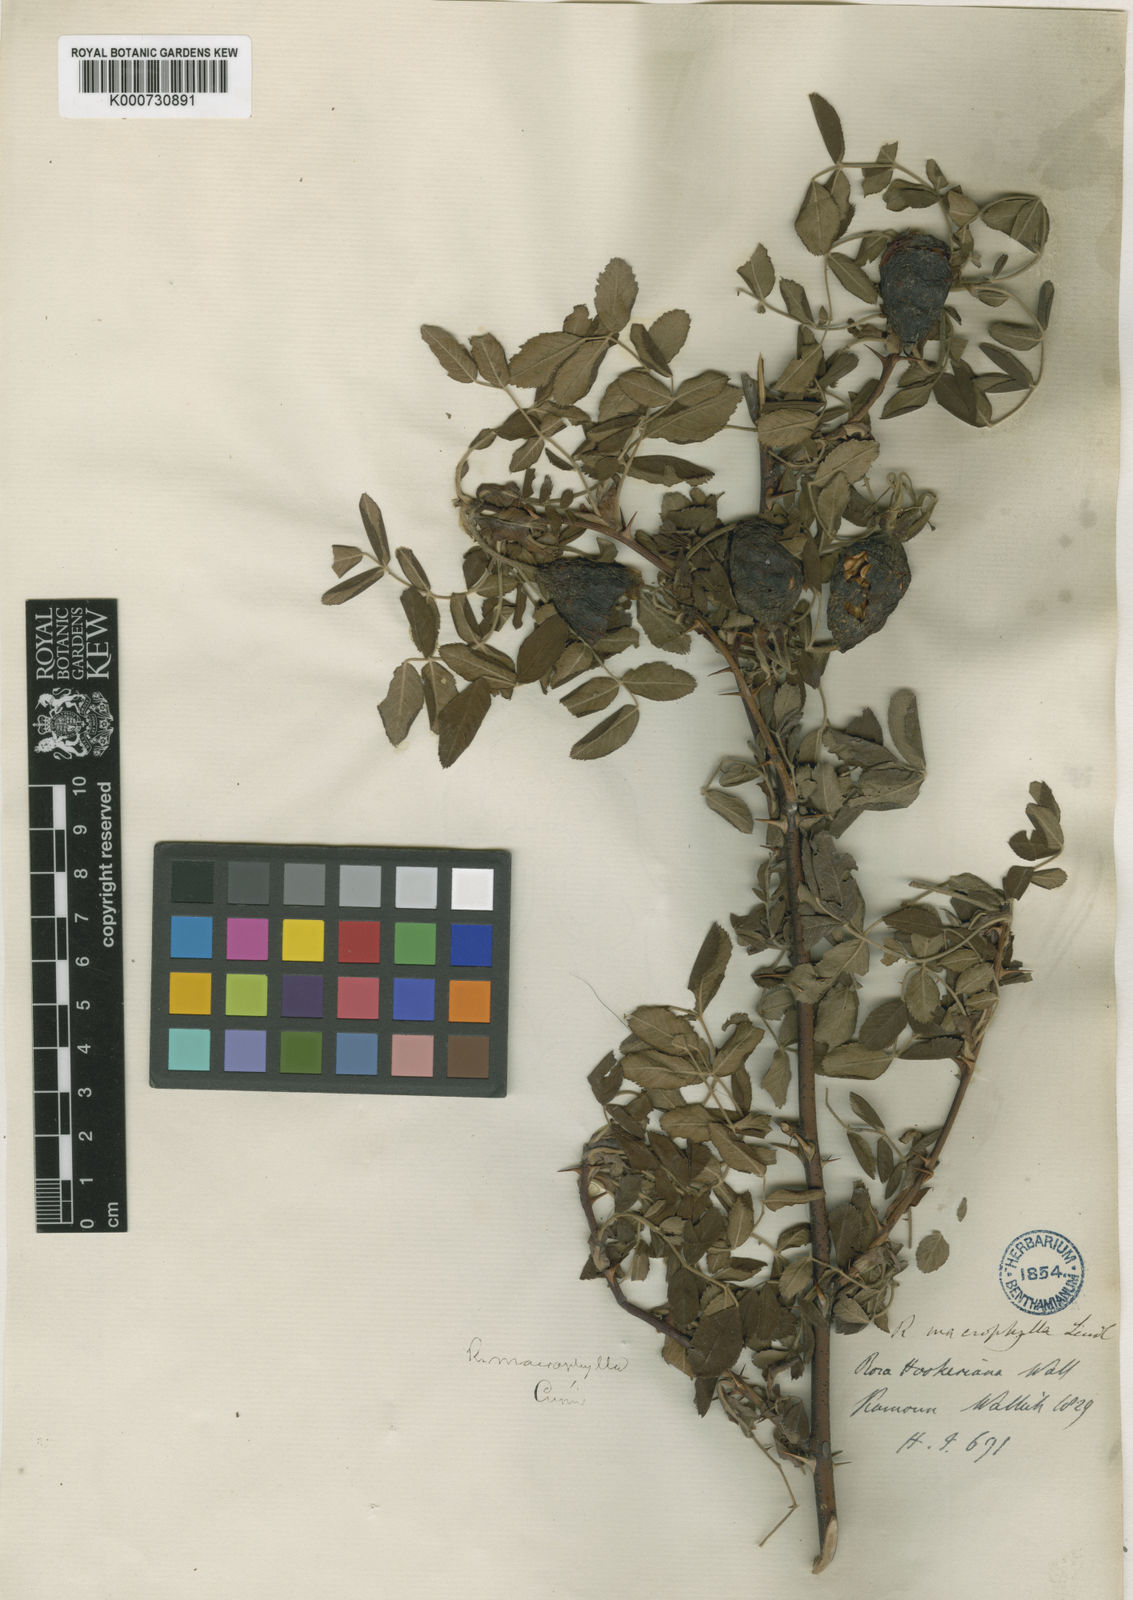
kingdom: Plantae
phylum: Tracheophyta
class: Magnoliopsida
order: Rosales
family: Rosaceae
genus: Rosa
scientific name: Rosa macrophylla
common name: Big-hip rose
